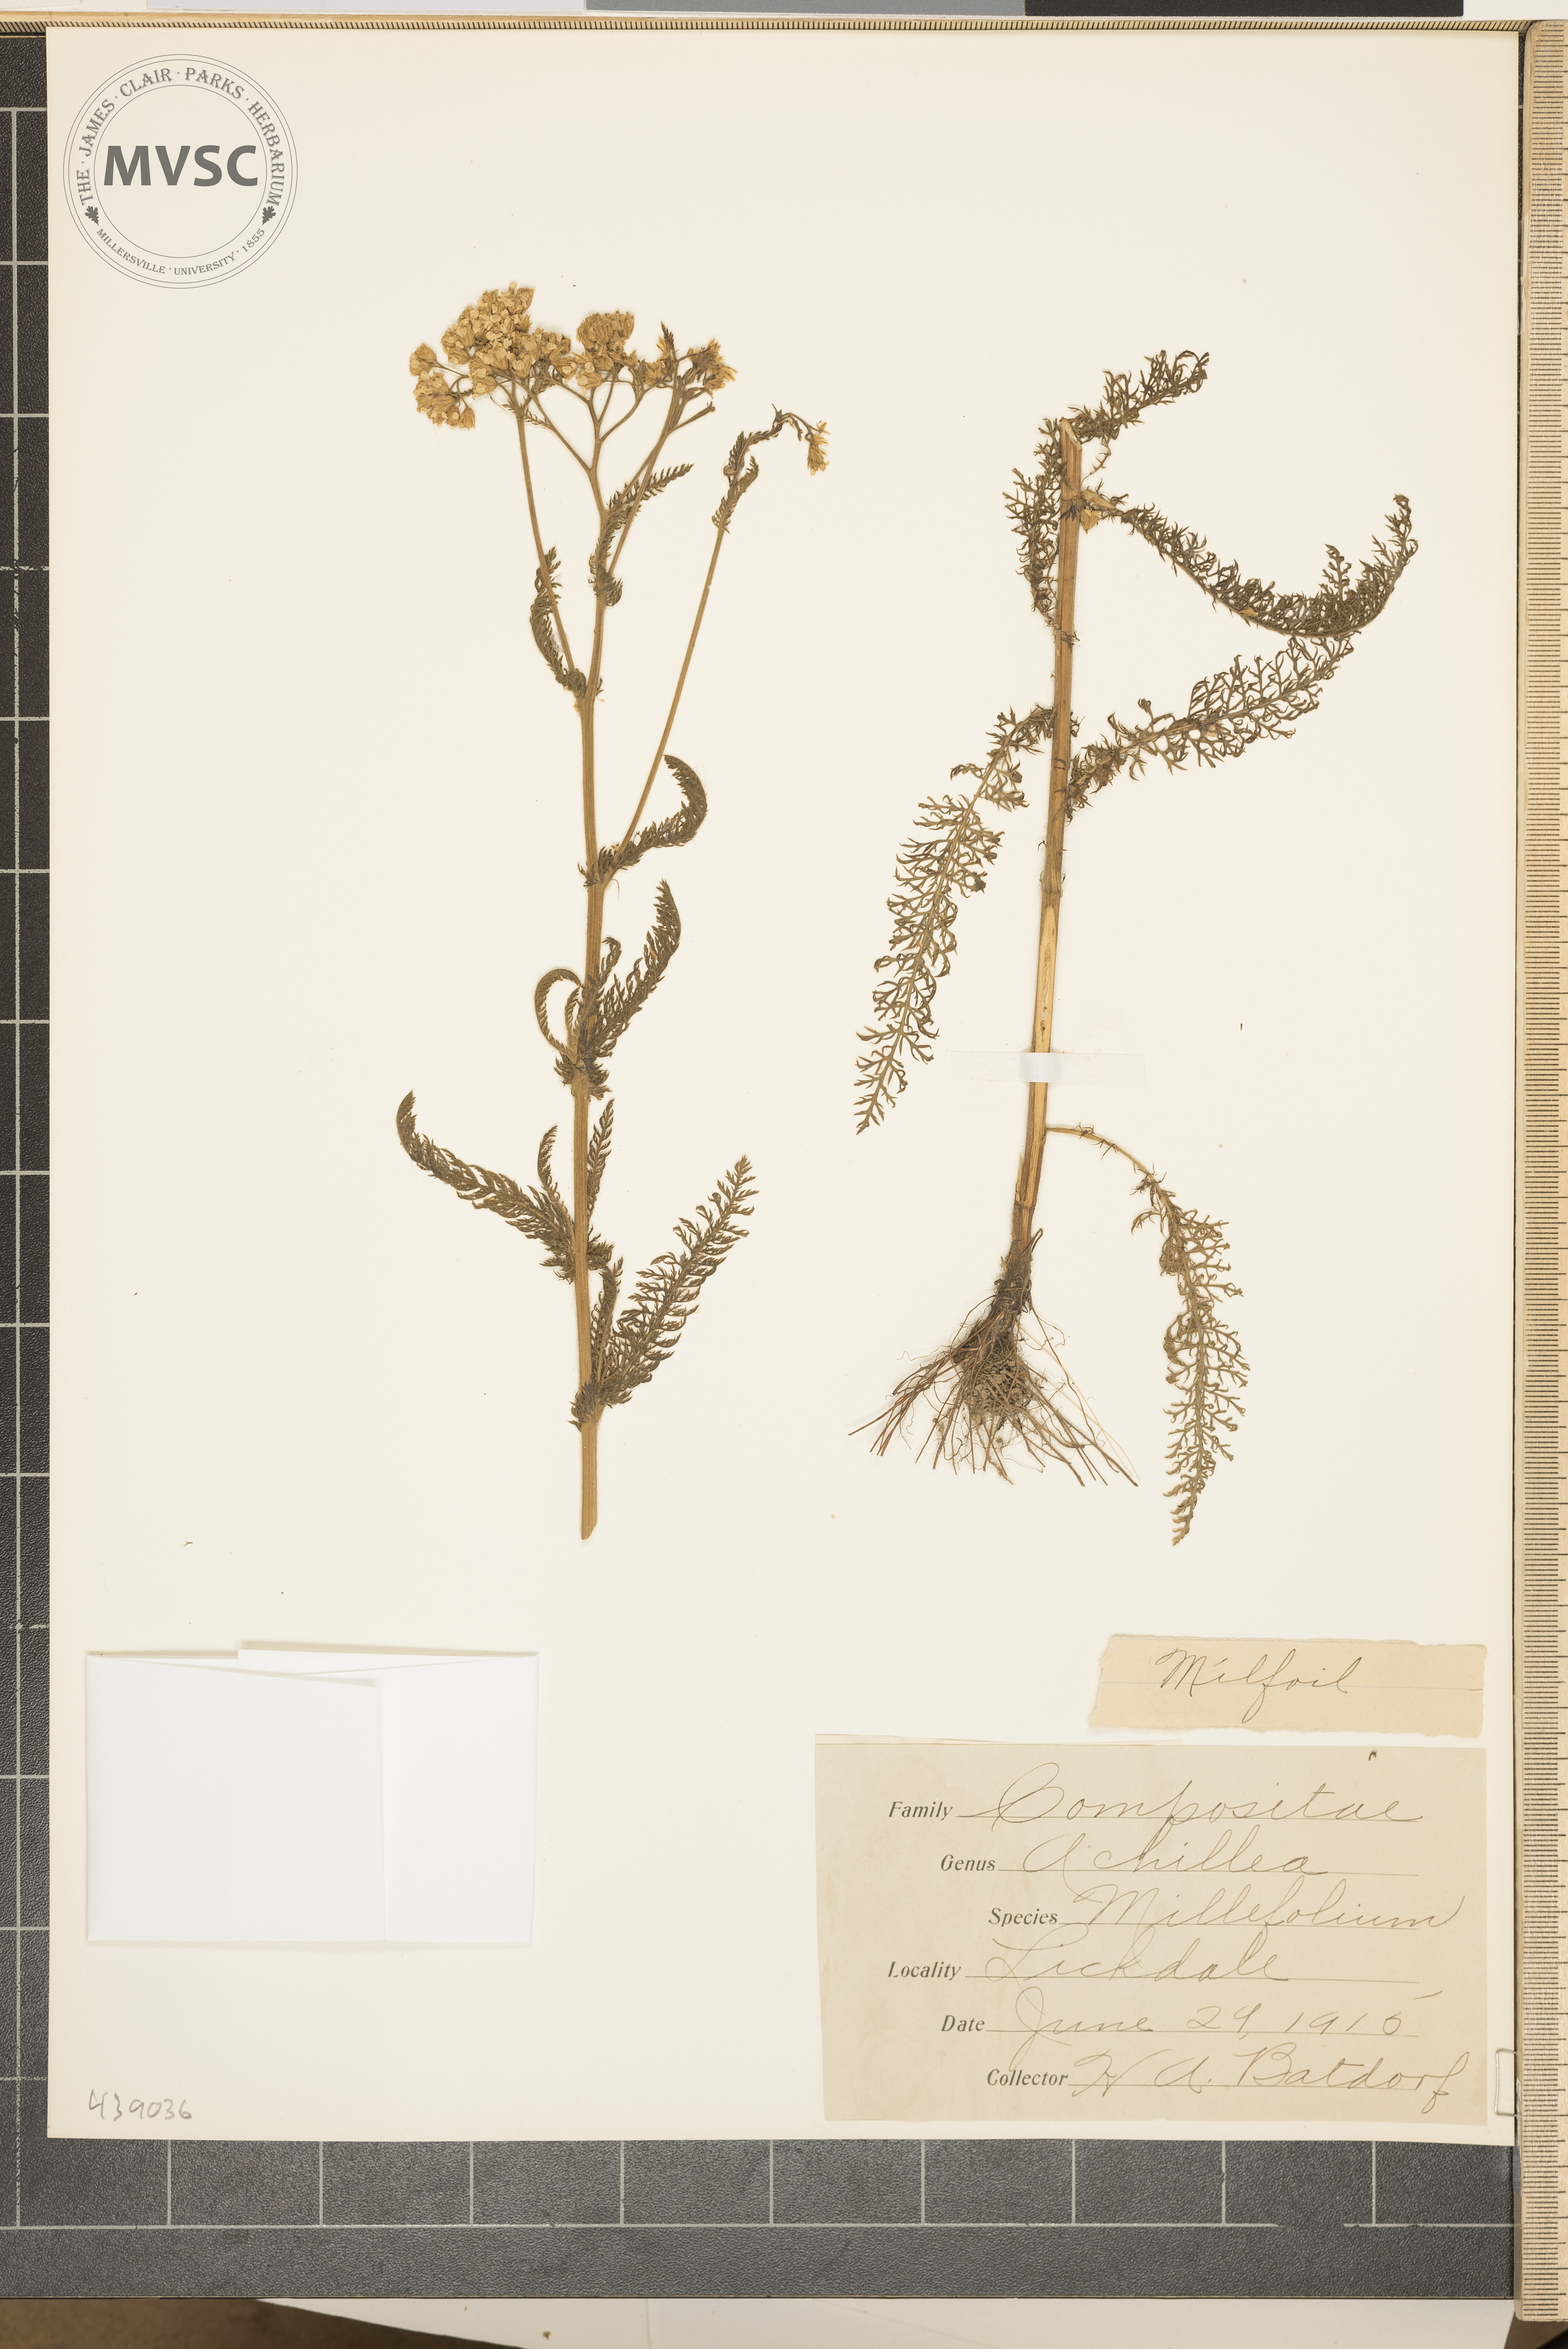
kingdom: Plantae
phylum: Tracheophyta
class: Magnoliopsida
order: Asterales
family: Asteraceae
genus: Achillea
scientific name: Achillea millefolium
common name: Milfoil
